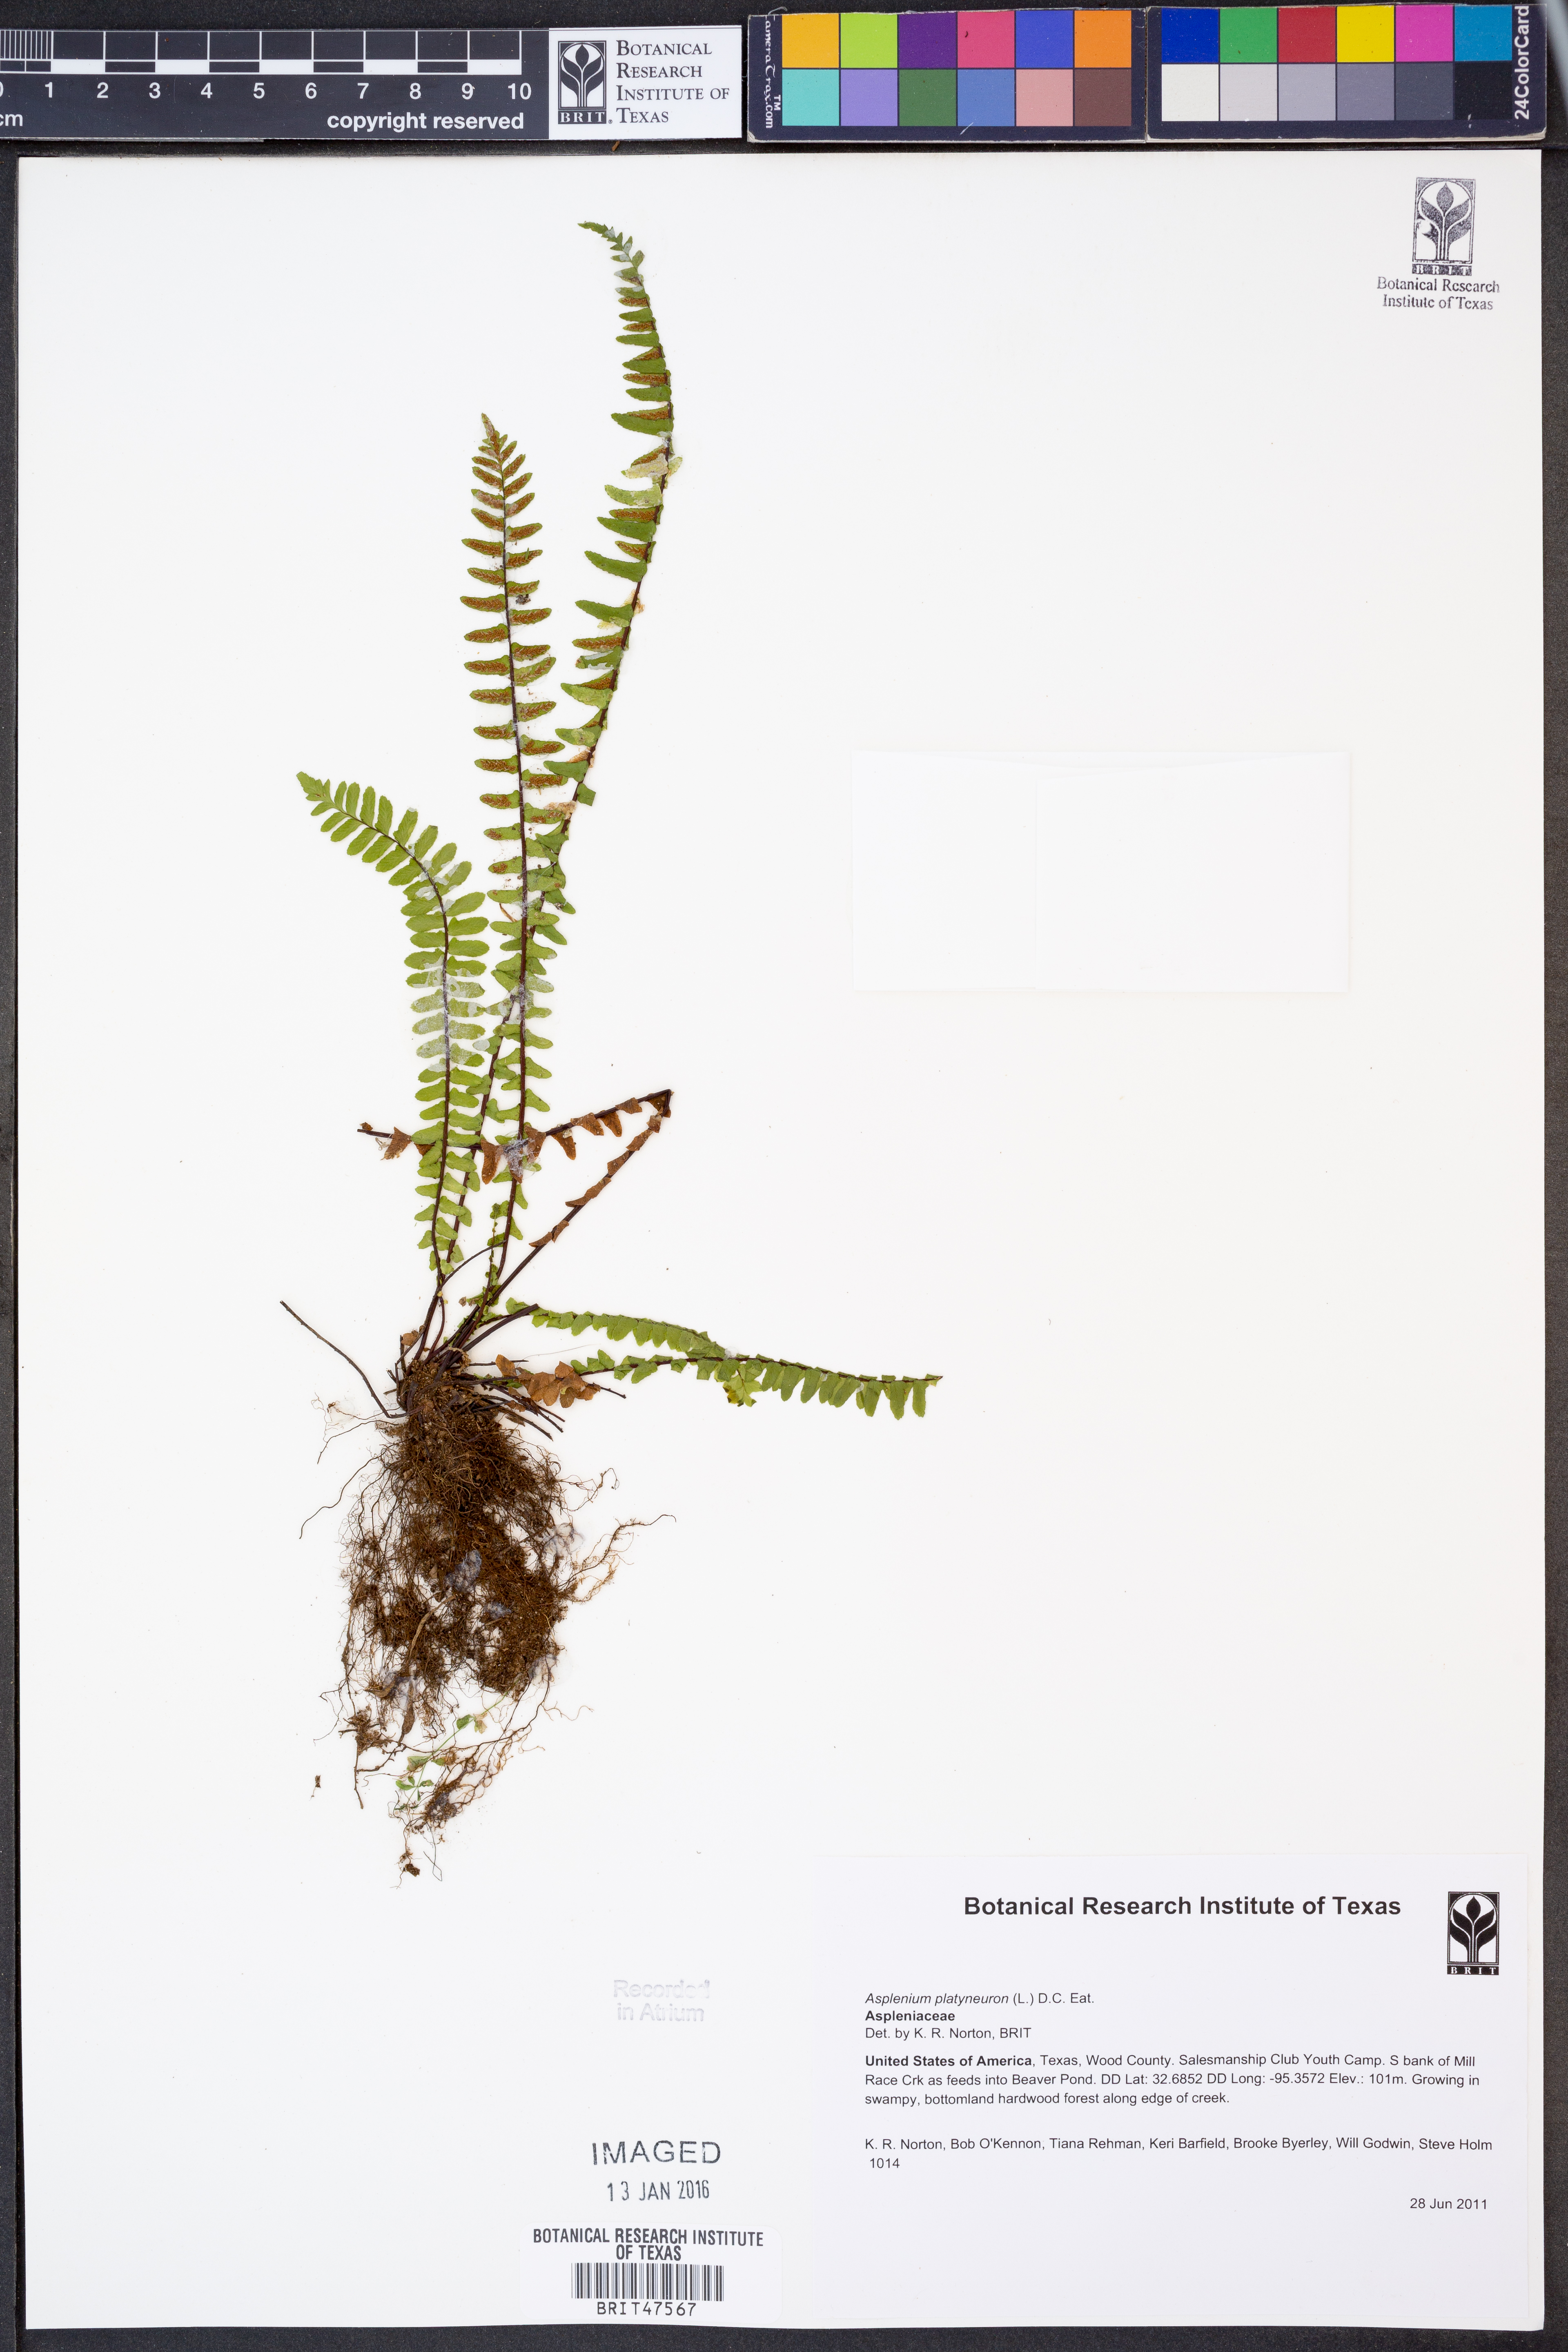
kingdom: Plantae
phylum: Tracheophyta
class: Polypodiopsida
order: Polypodiales
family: Aspleniaceae
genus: Asplenium
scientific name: Asplenium platyneuron
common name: Ebony spleenwort
